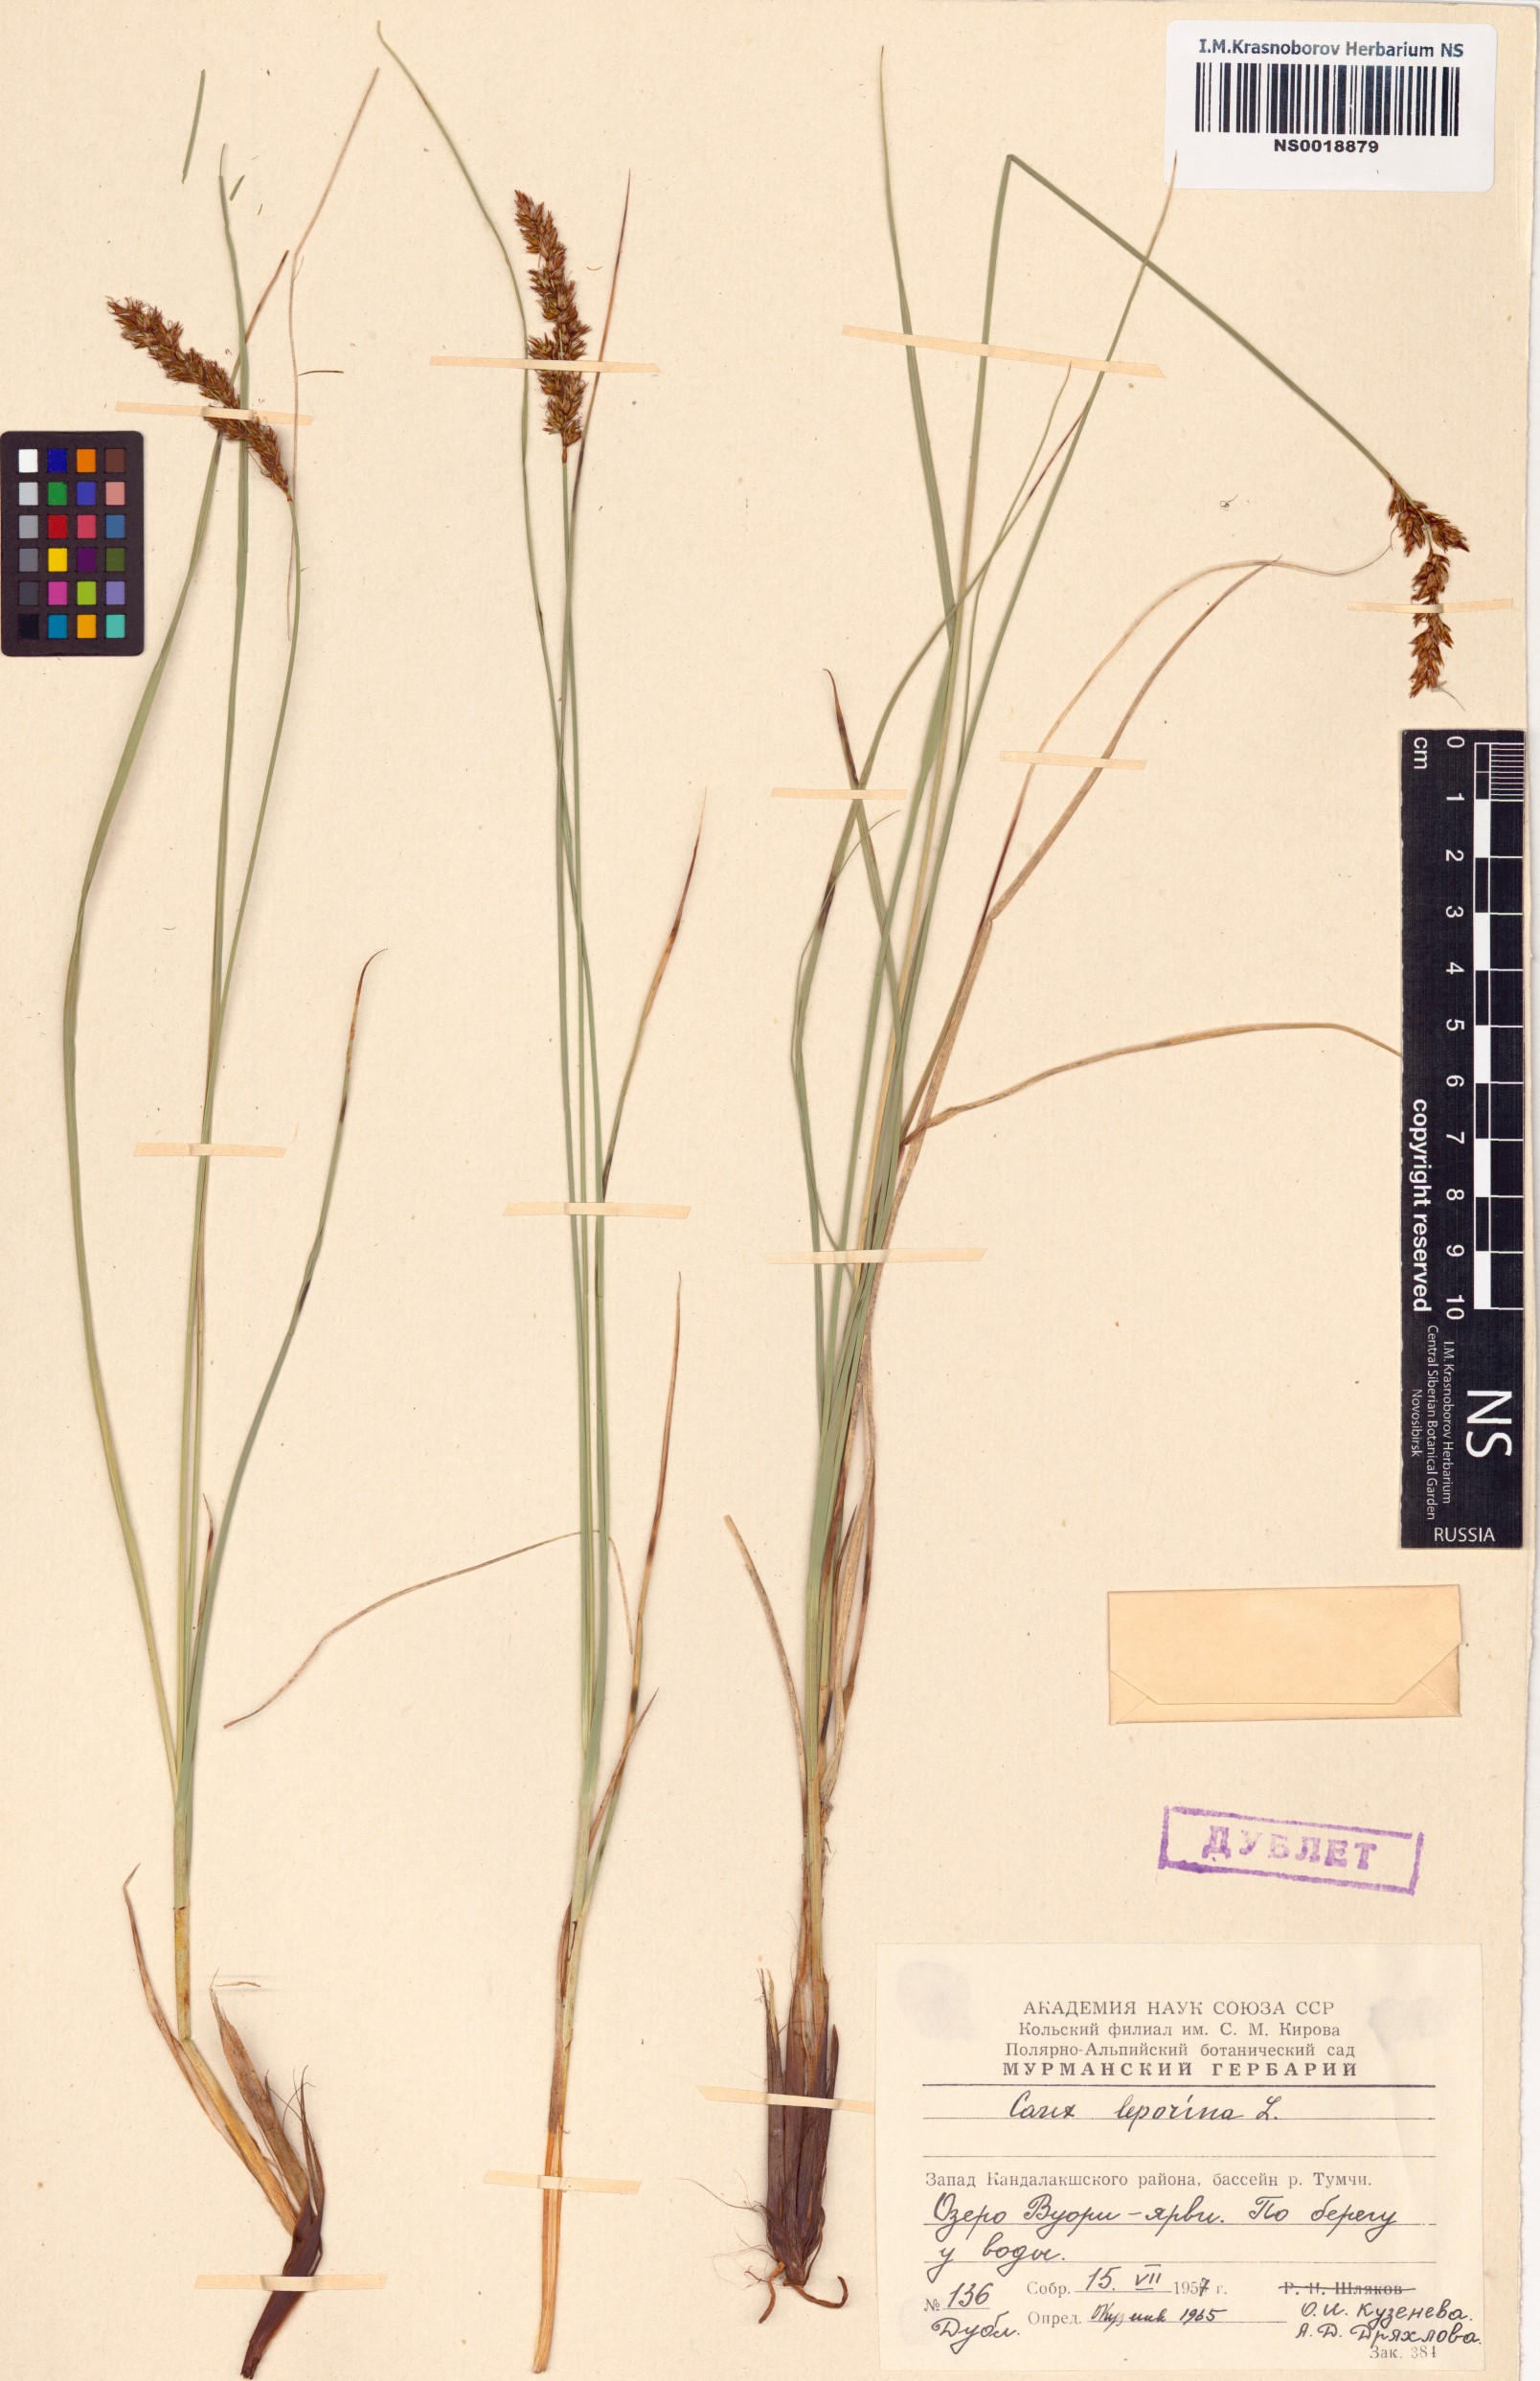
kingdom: Plantae
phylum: Tracheophyta
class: Liliopsida
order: Poales
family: Cyperaceae
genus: Carex
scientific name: Carex leporina
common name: Oval sedge
